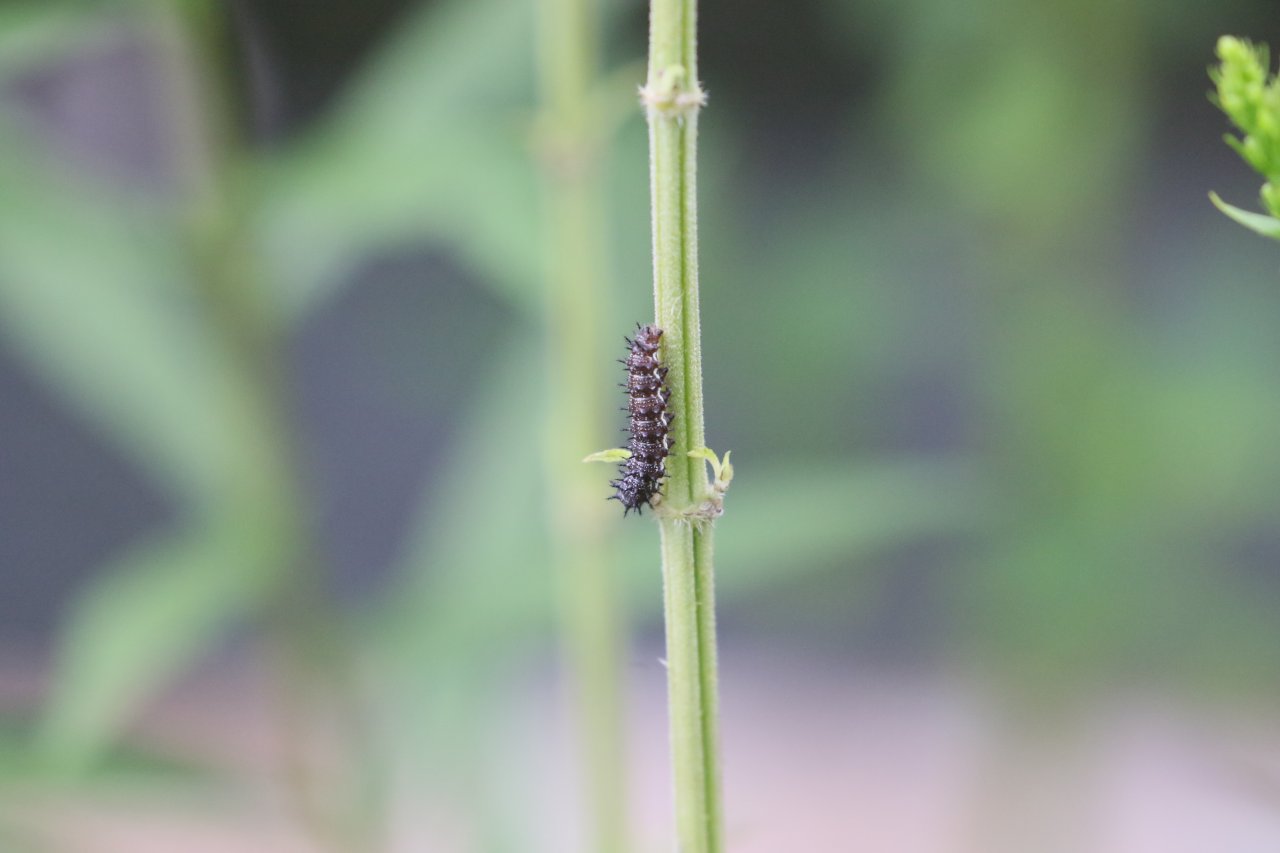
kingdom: Animalia
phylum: Arthropoda
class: Insecta
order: Lepidoptera
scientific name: Lepidoptera
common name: Butterflies
